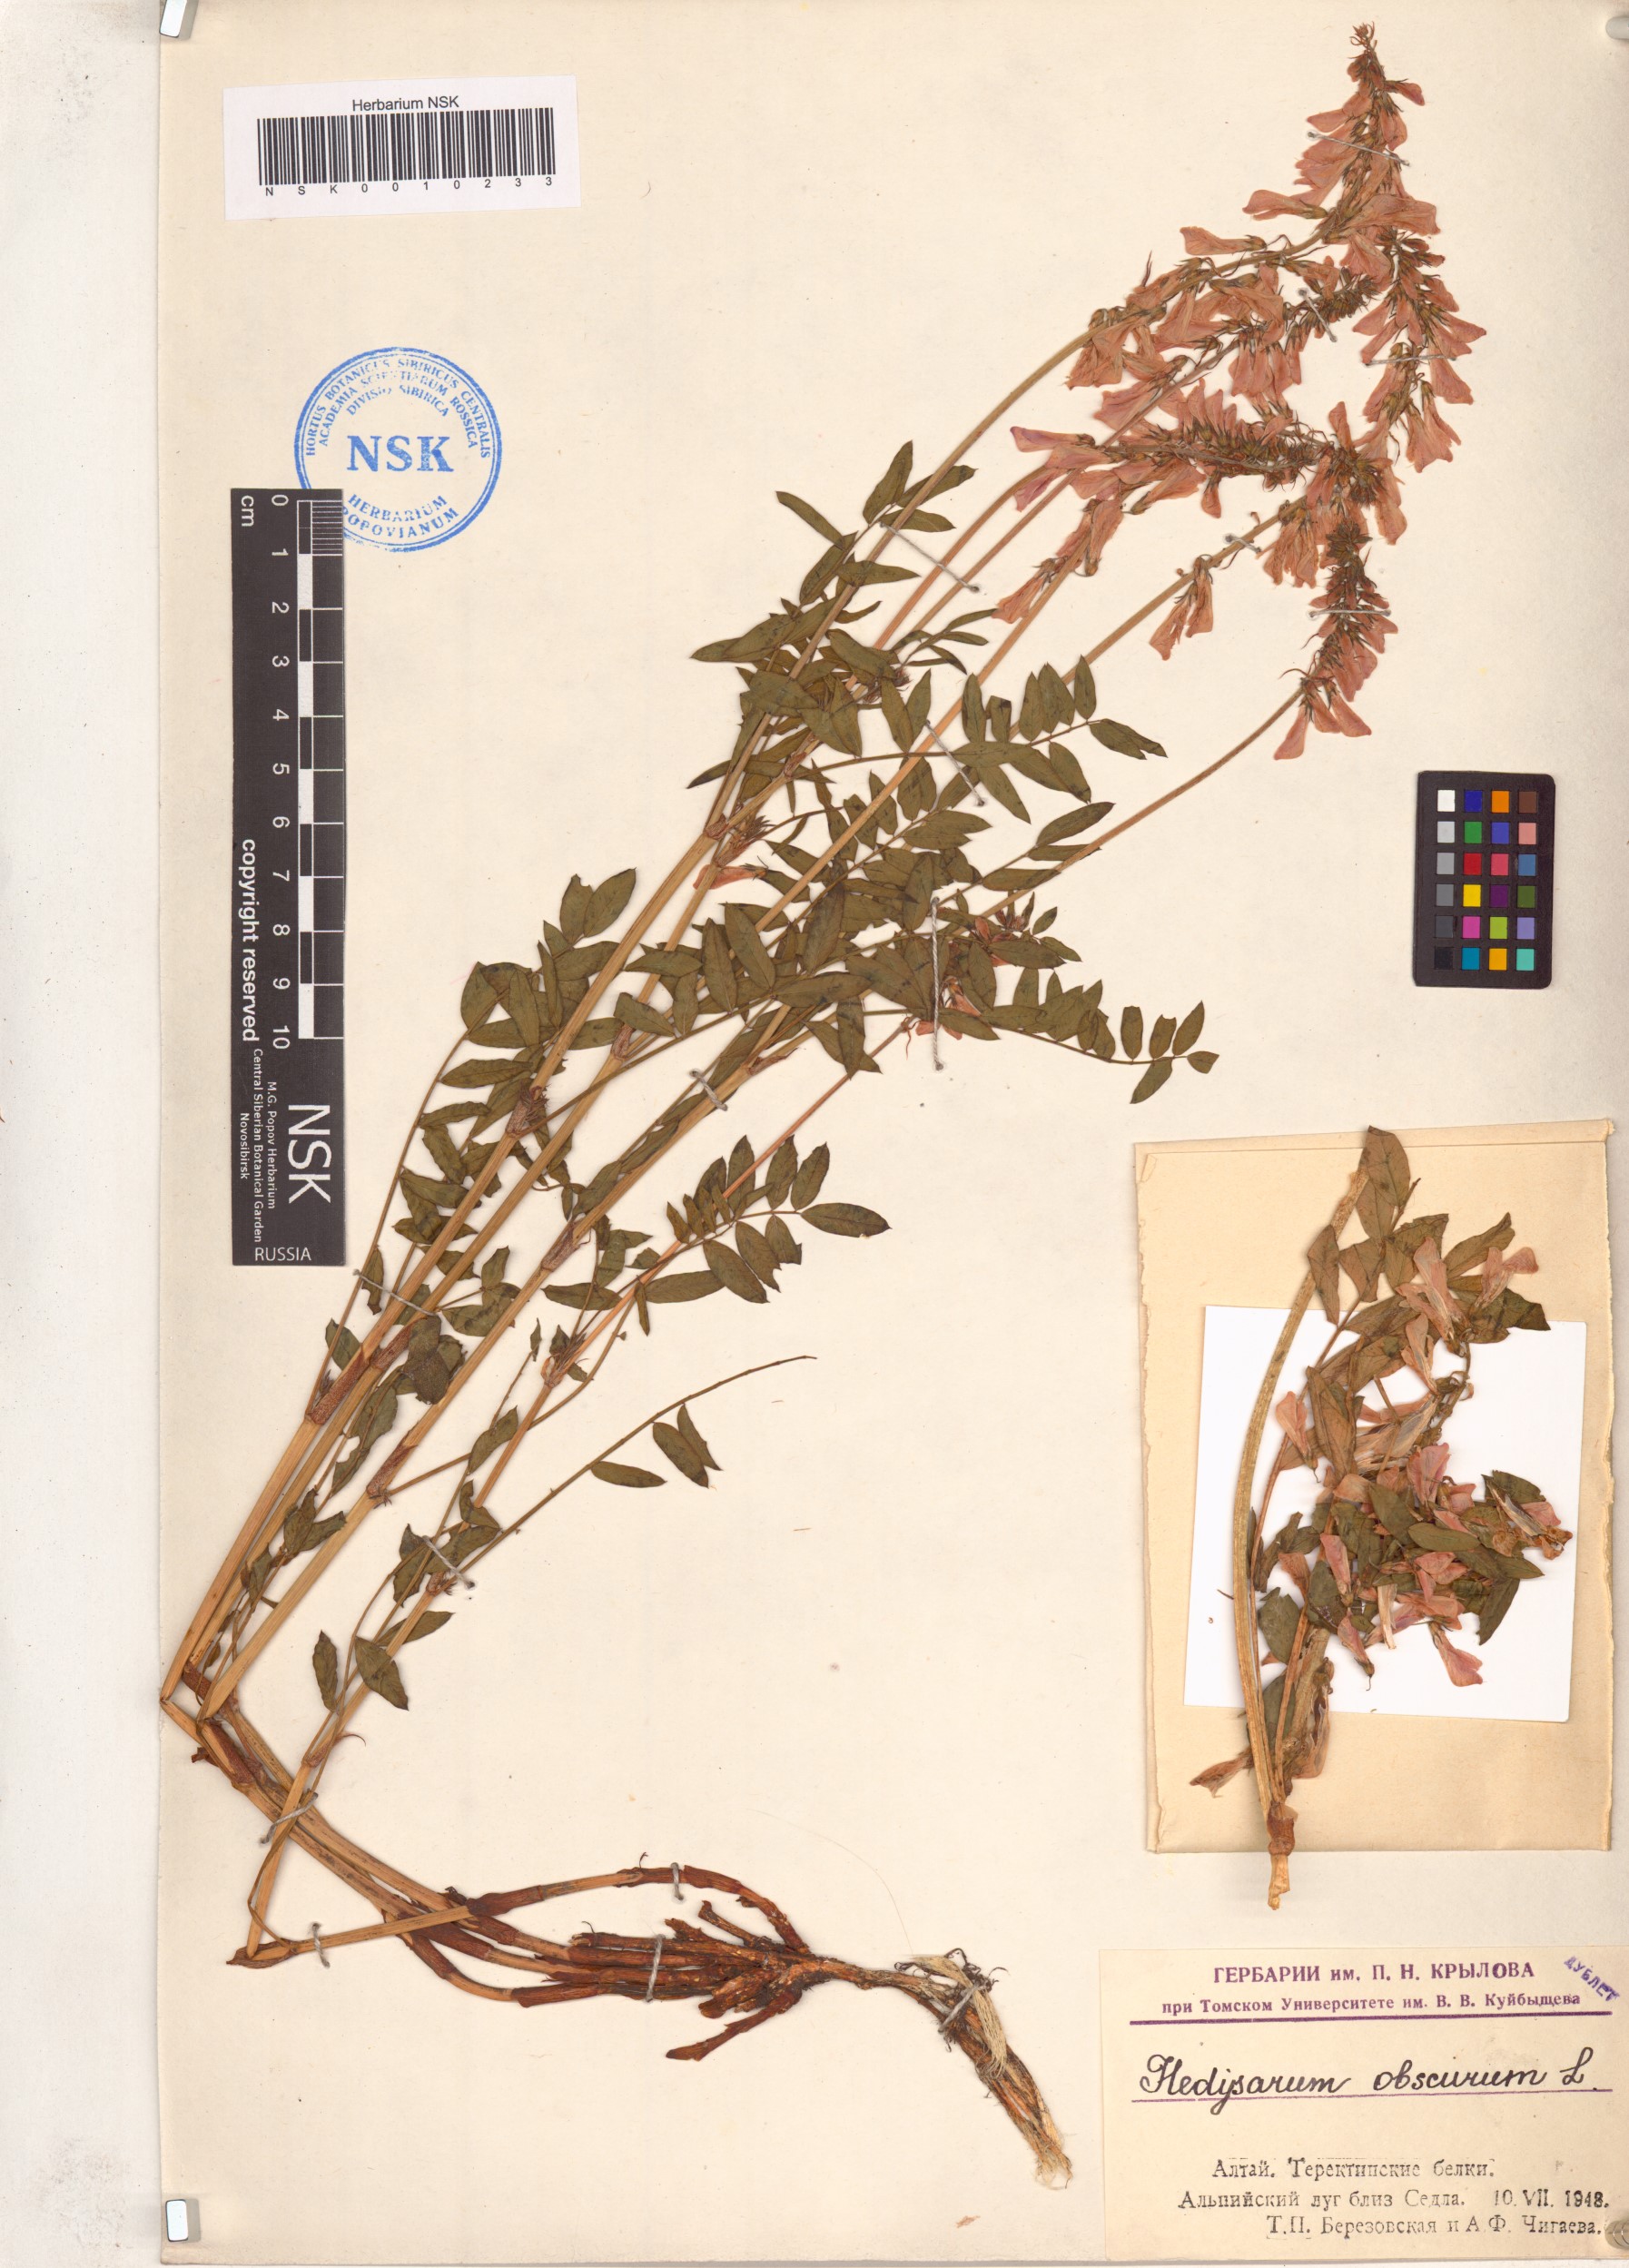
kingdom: Plantae
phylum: Tracheophyta
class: Magnoliopsida
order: Fabales
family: Fabaceae
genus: Hedysarum
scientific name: Hedysarum hedysaroides
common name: Alpine french-honeysuckle
